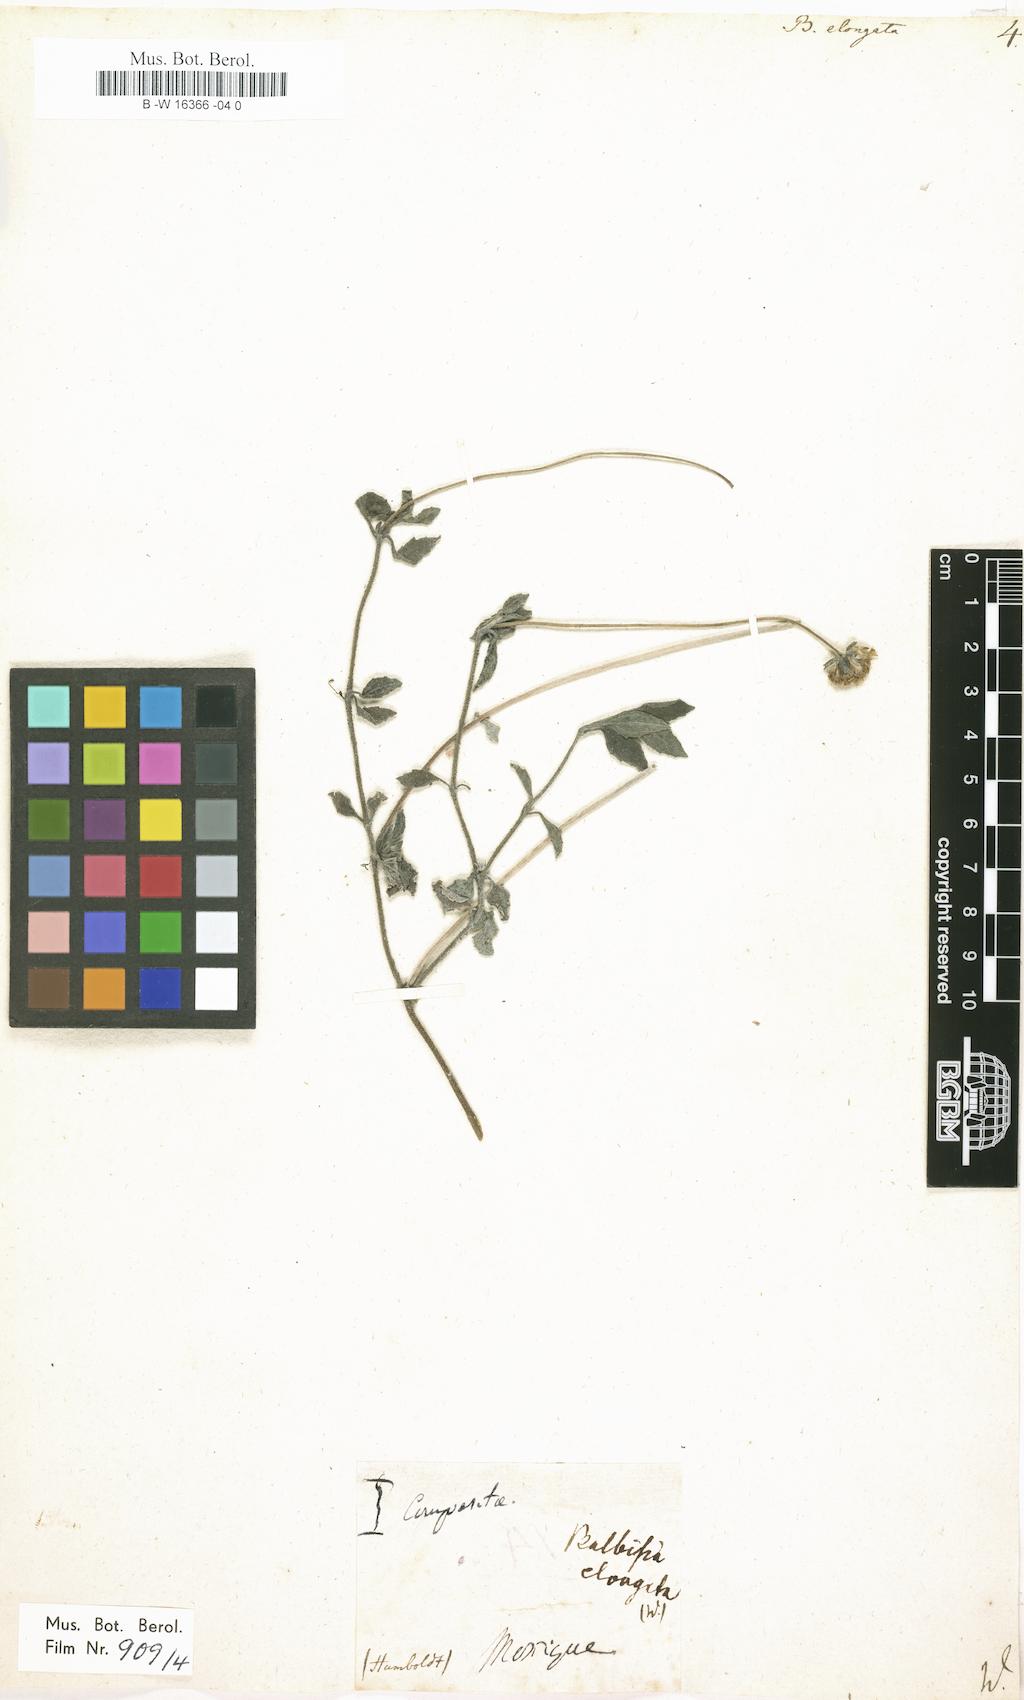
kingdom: Plantae
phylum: Tracheophyta
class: Magnoliopsida
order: Asterales
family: Asteraceae
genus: Tridax
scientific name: Tridax procumbens
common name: Coatbuttons
